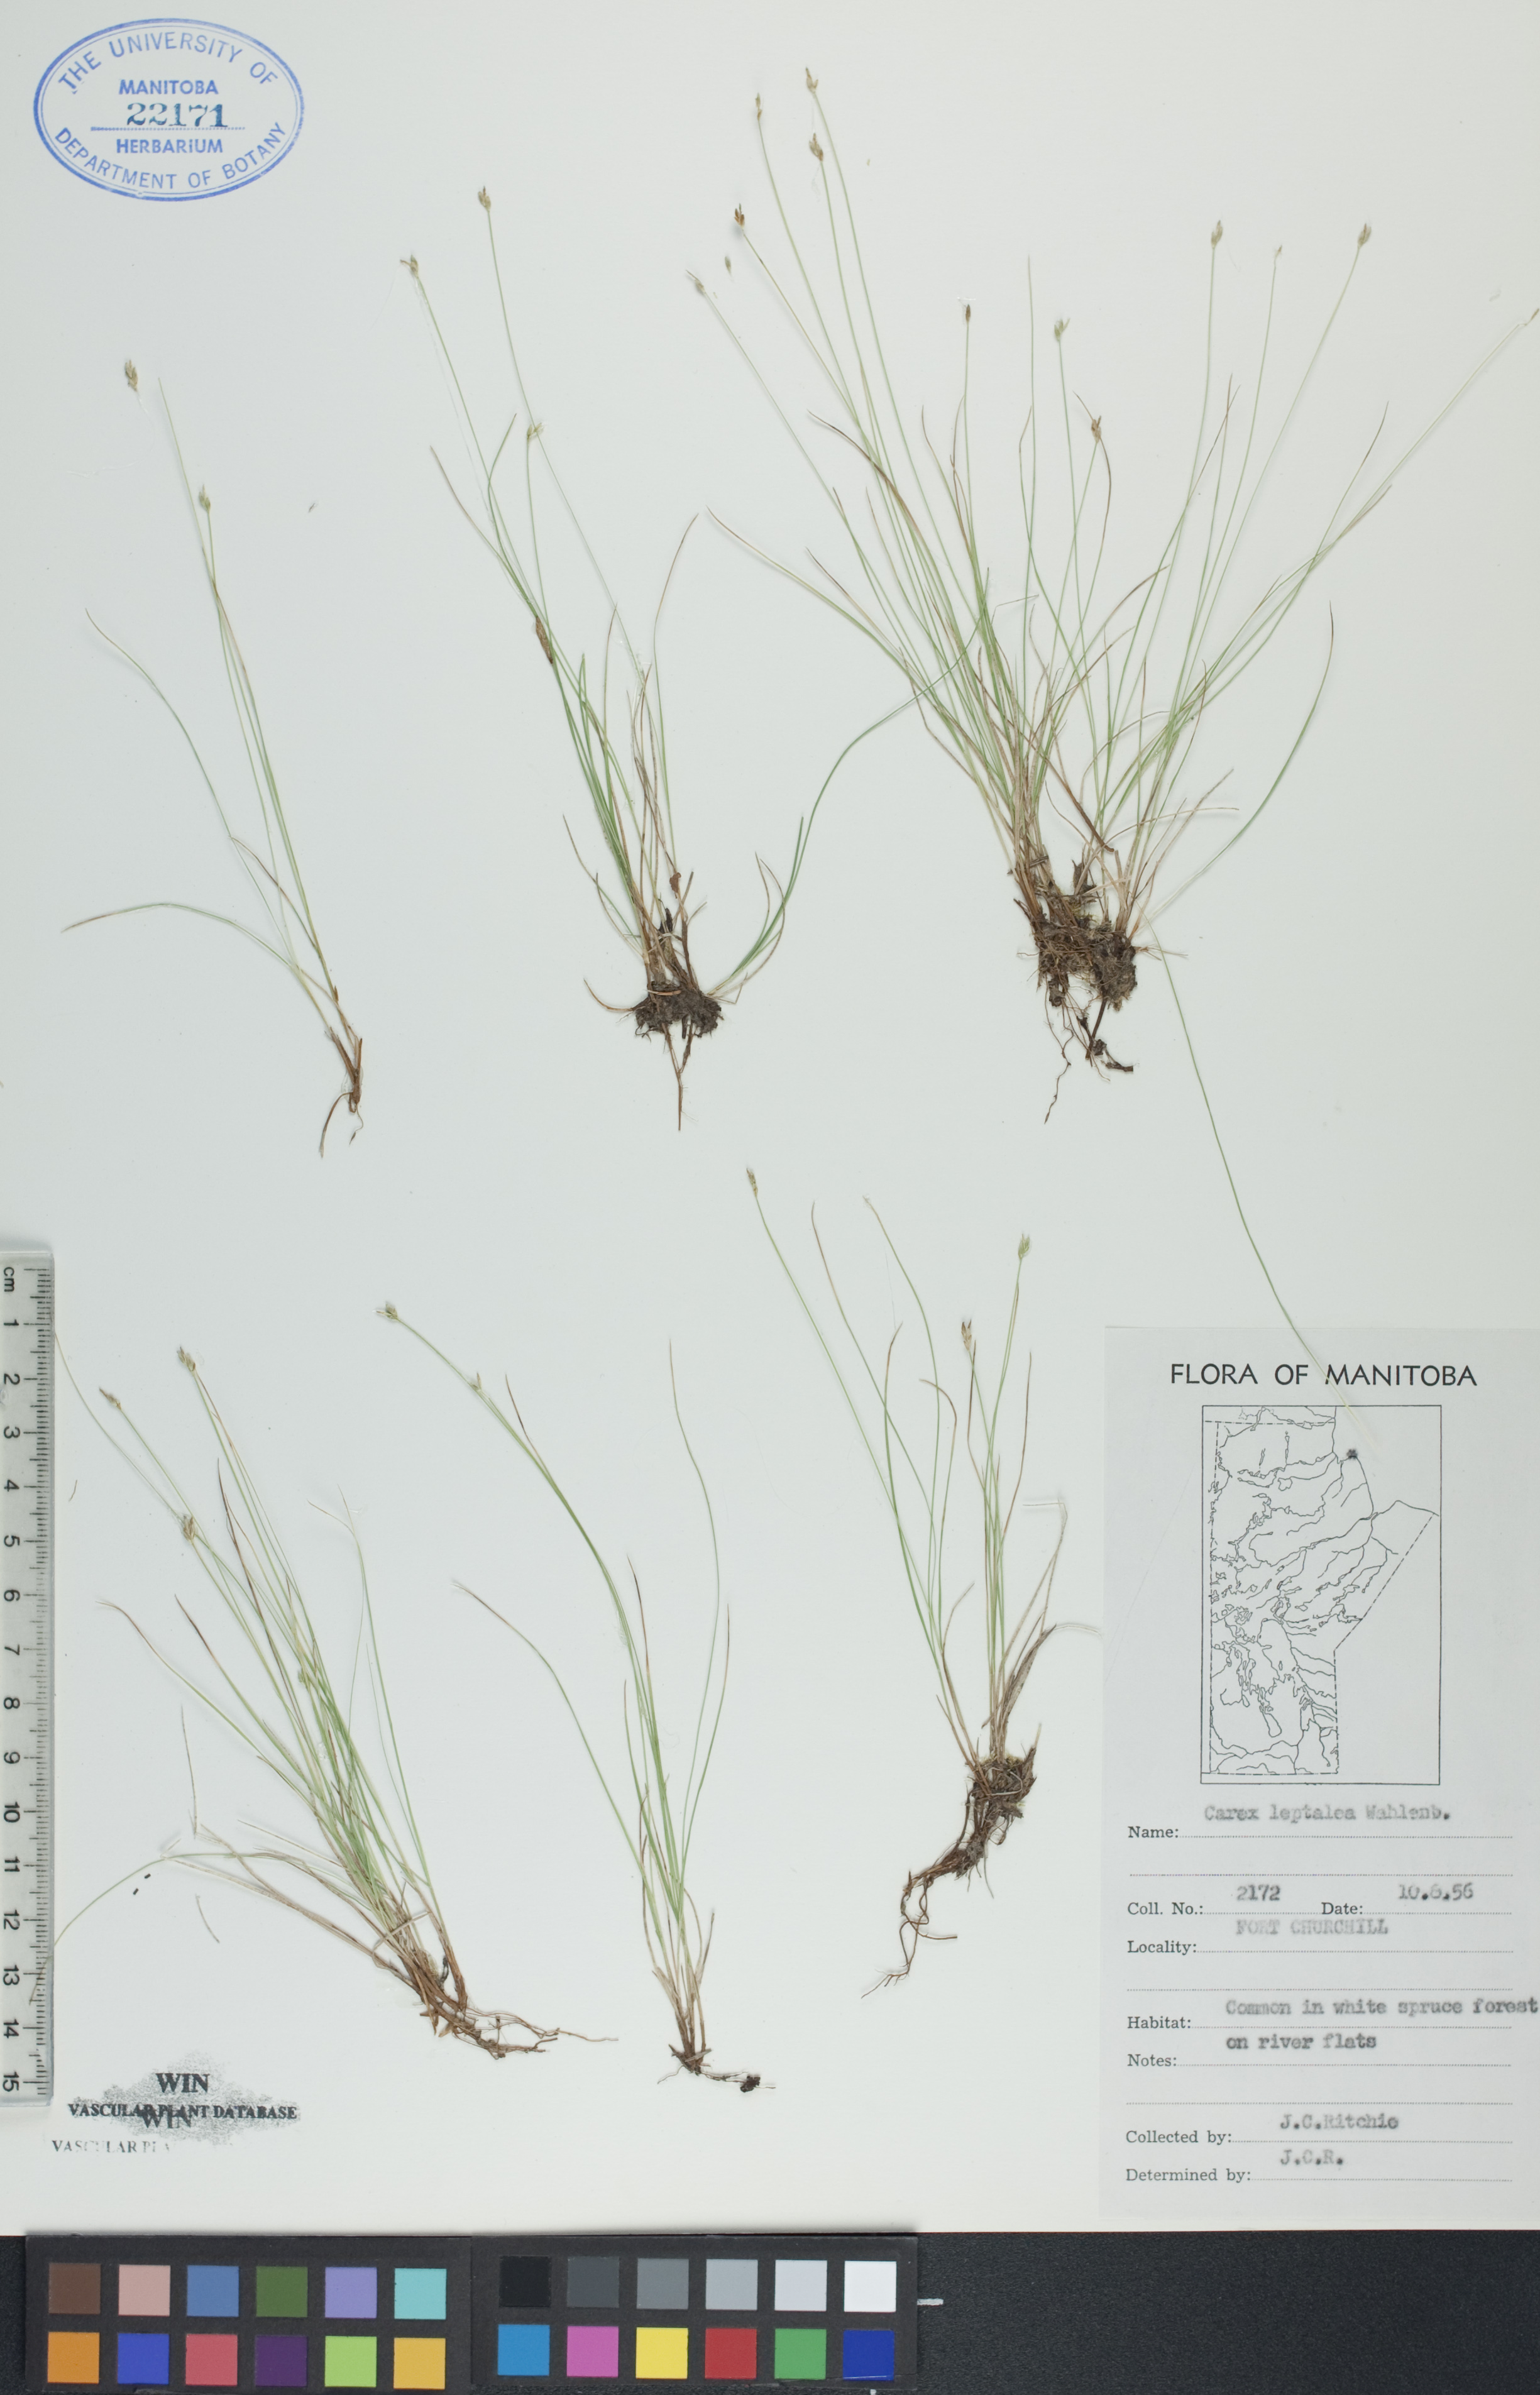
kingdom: Plantae
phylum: Tracheophyta
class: Liliopsida
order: Poales
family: Cyperaceae
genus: Carex
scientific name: Carex leptalea
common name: Bristly-stalked sedge
